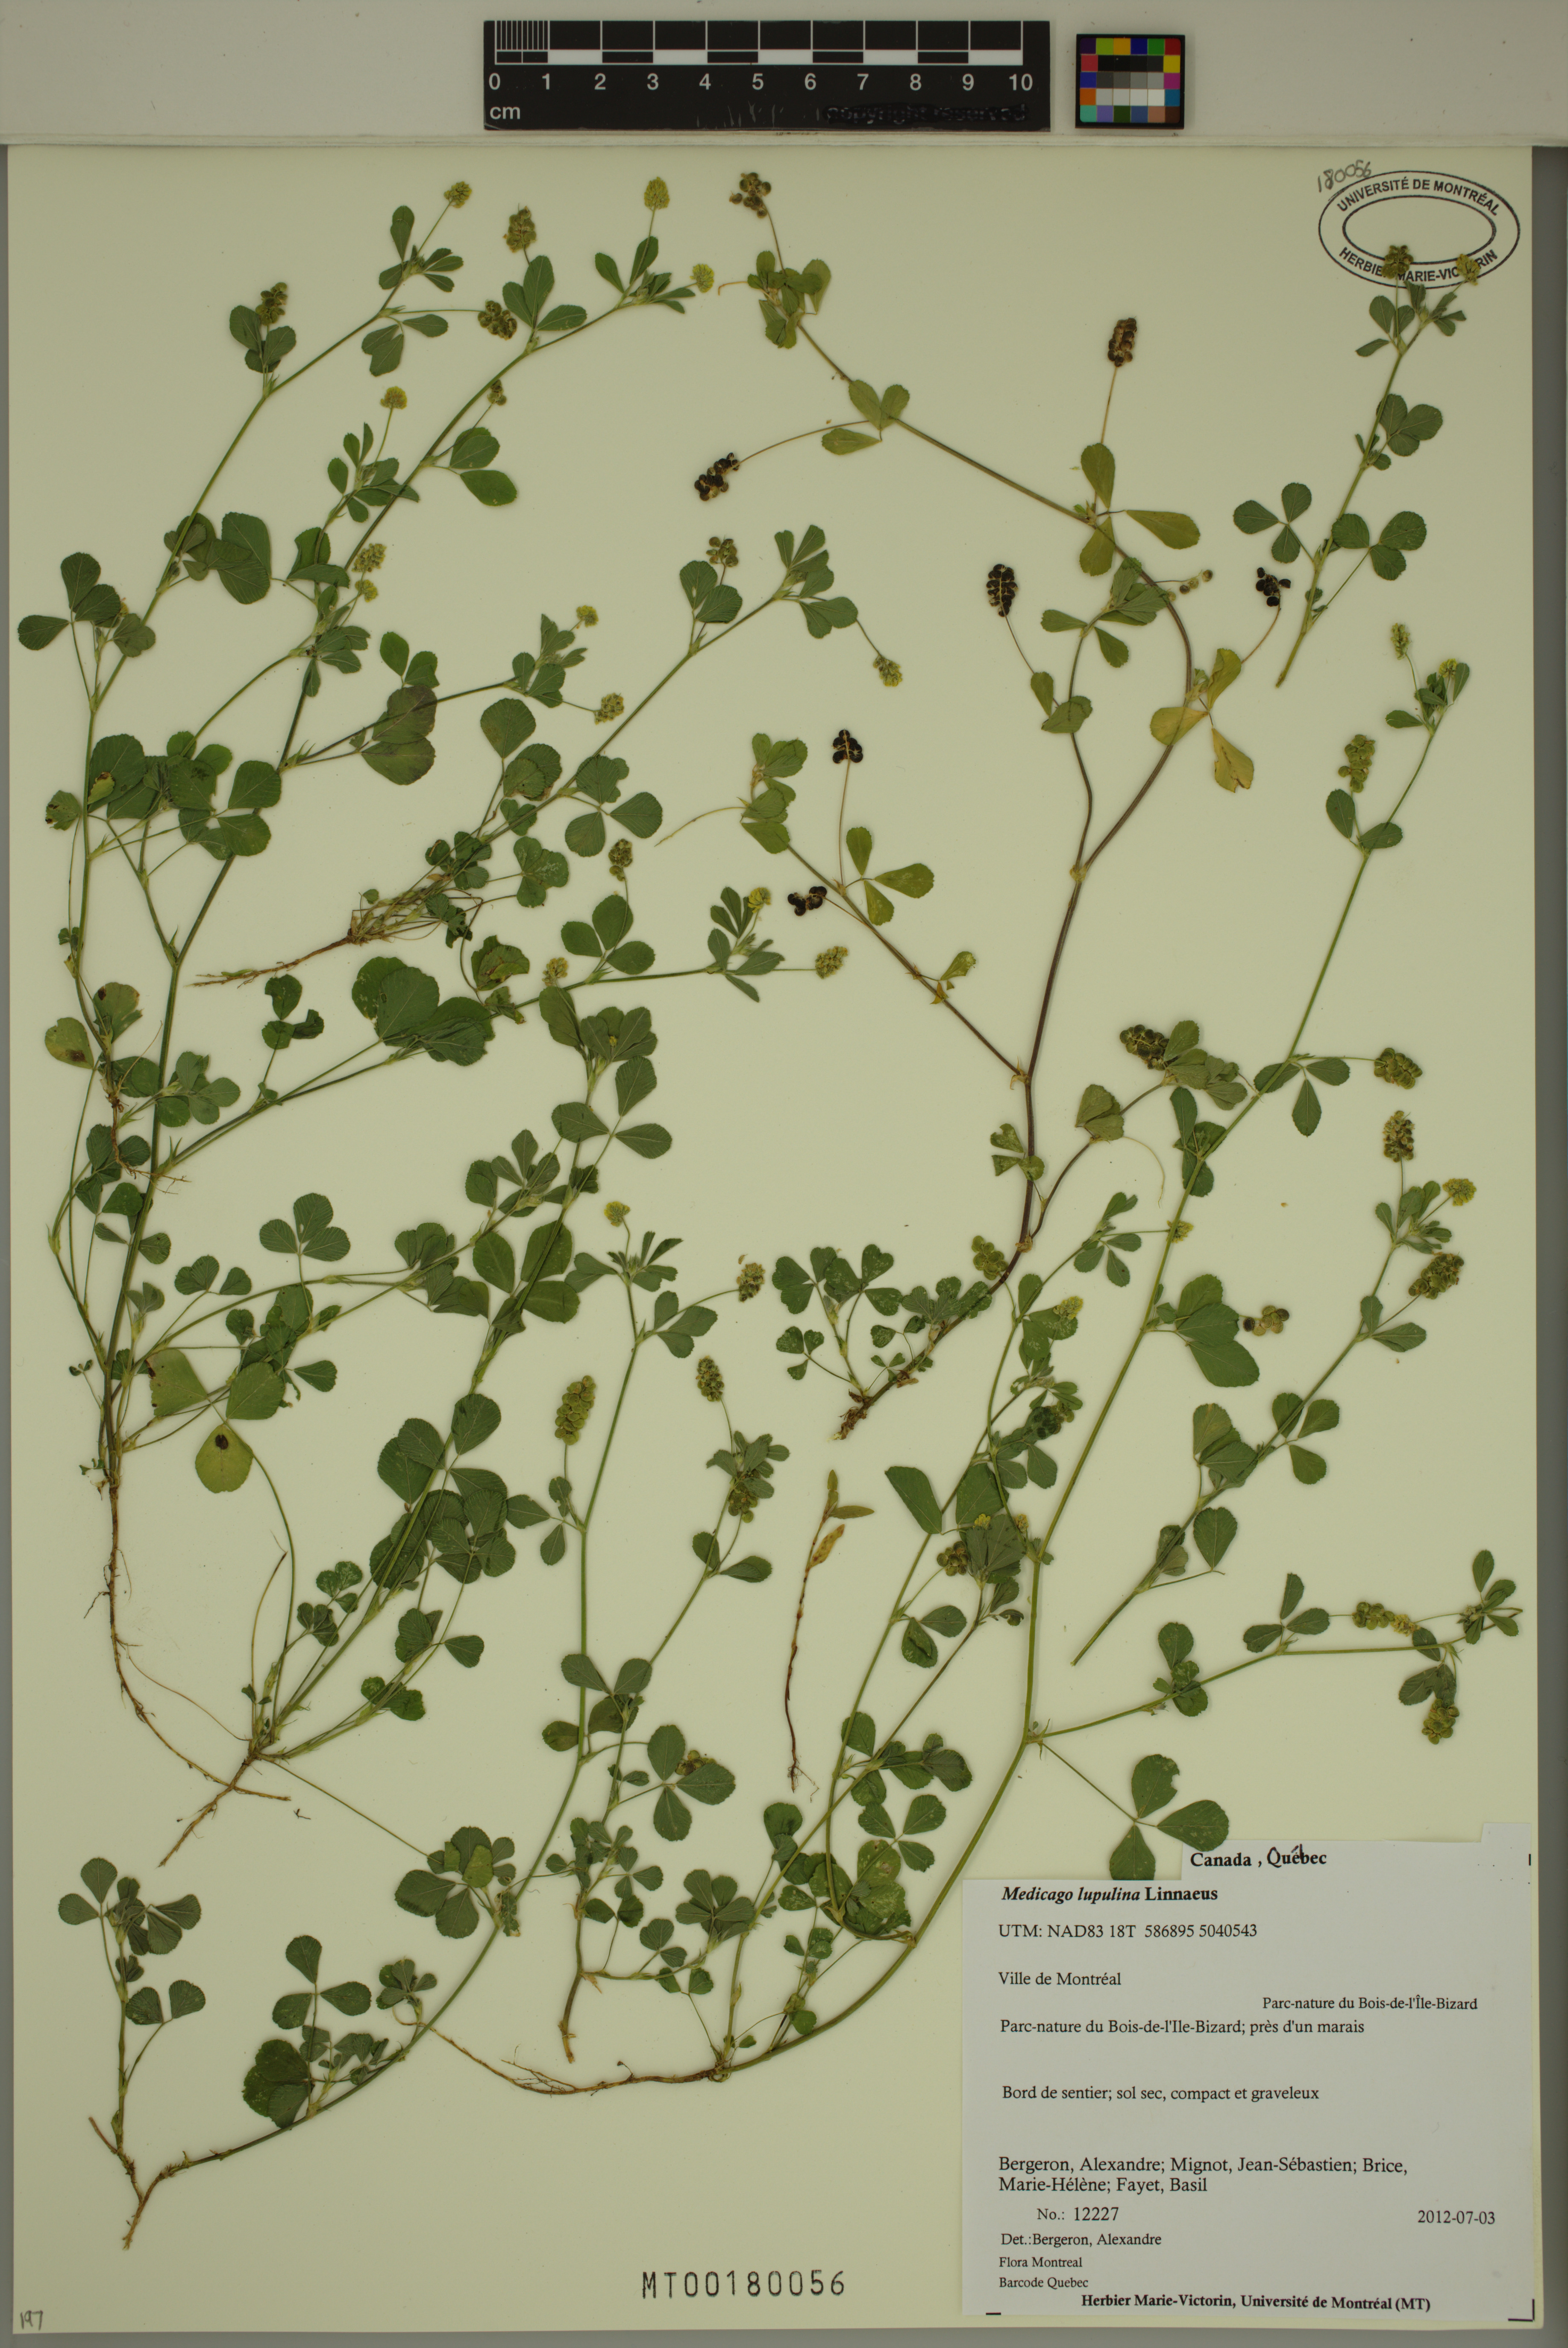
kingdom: Plantae
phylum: Tracheophyta
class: Magnoliopsida
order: Fabales
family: Fabaceae
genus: Medicago
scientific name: Medicago lupulina
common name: Black medick
